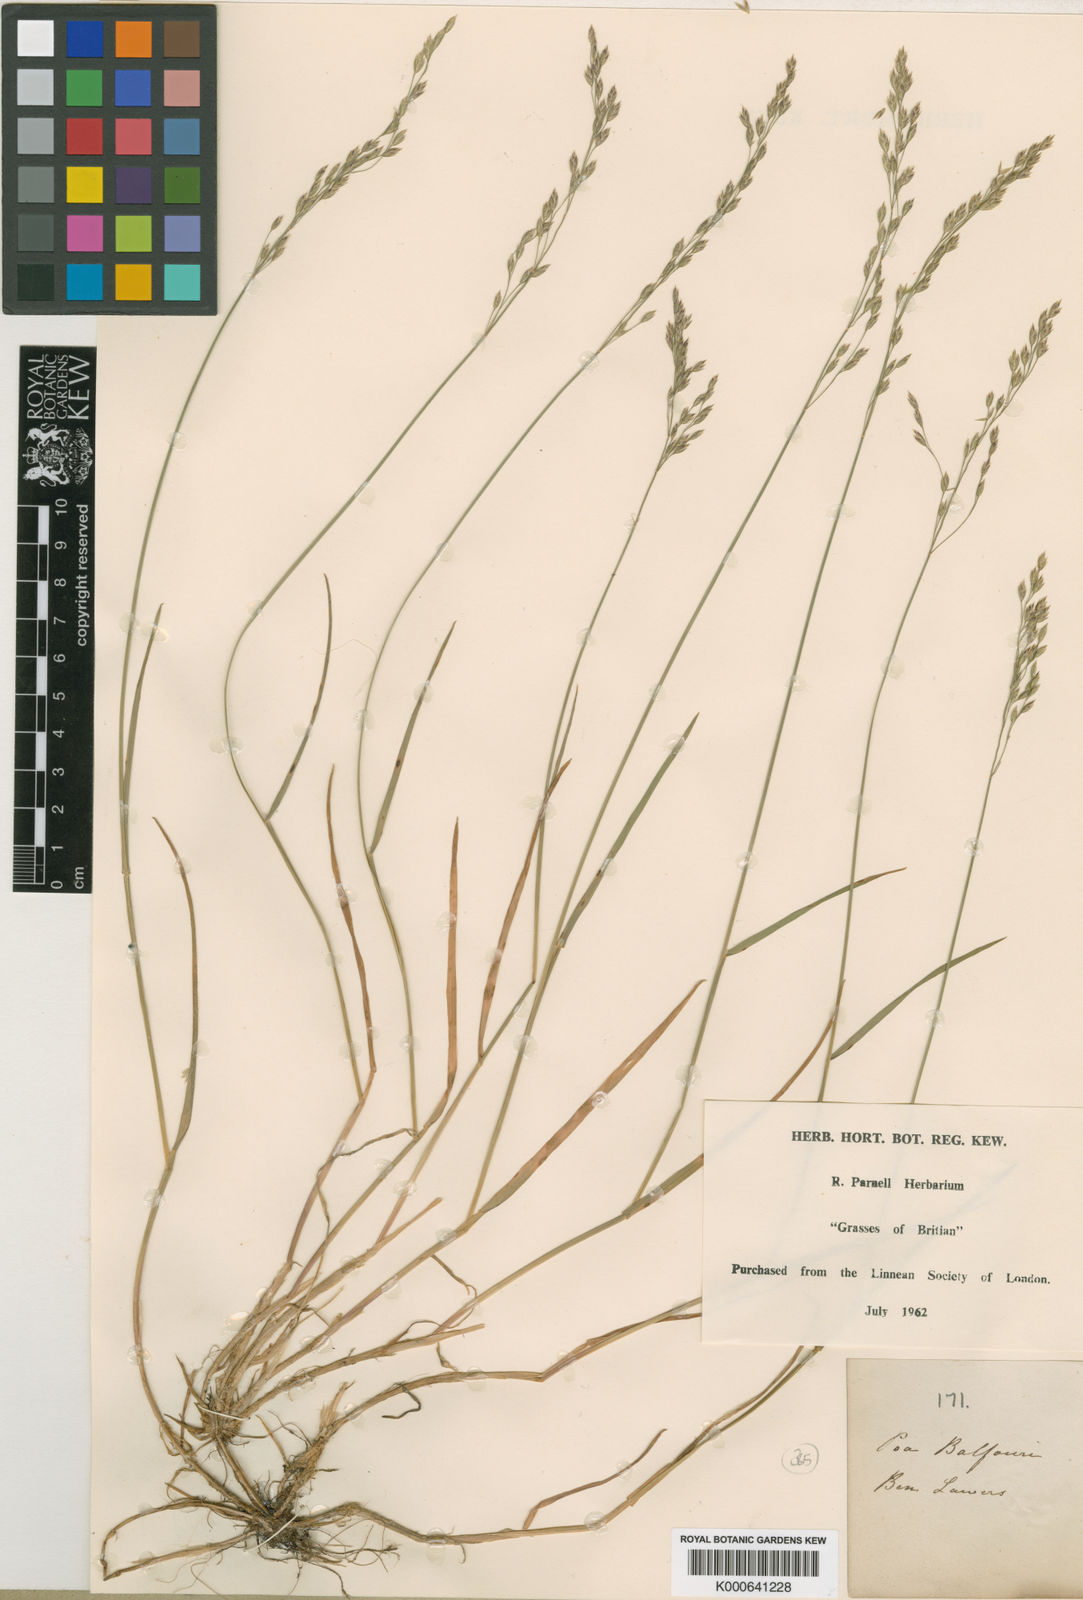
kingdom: Plantae
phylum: Tracheophyta
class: Liliopsida
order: Poales
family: Poaceae
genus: Poa
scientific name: Poa glauca
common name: Glaucous bluegrass
